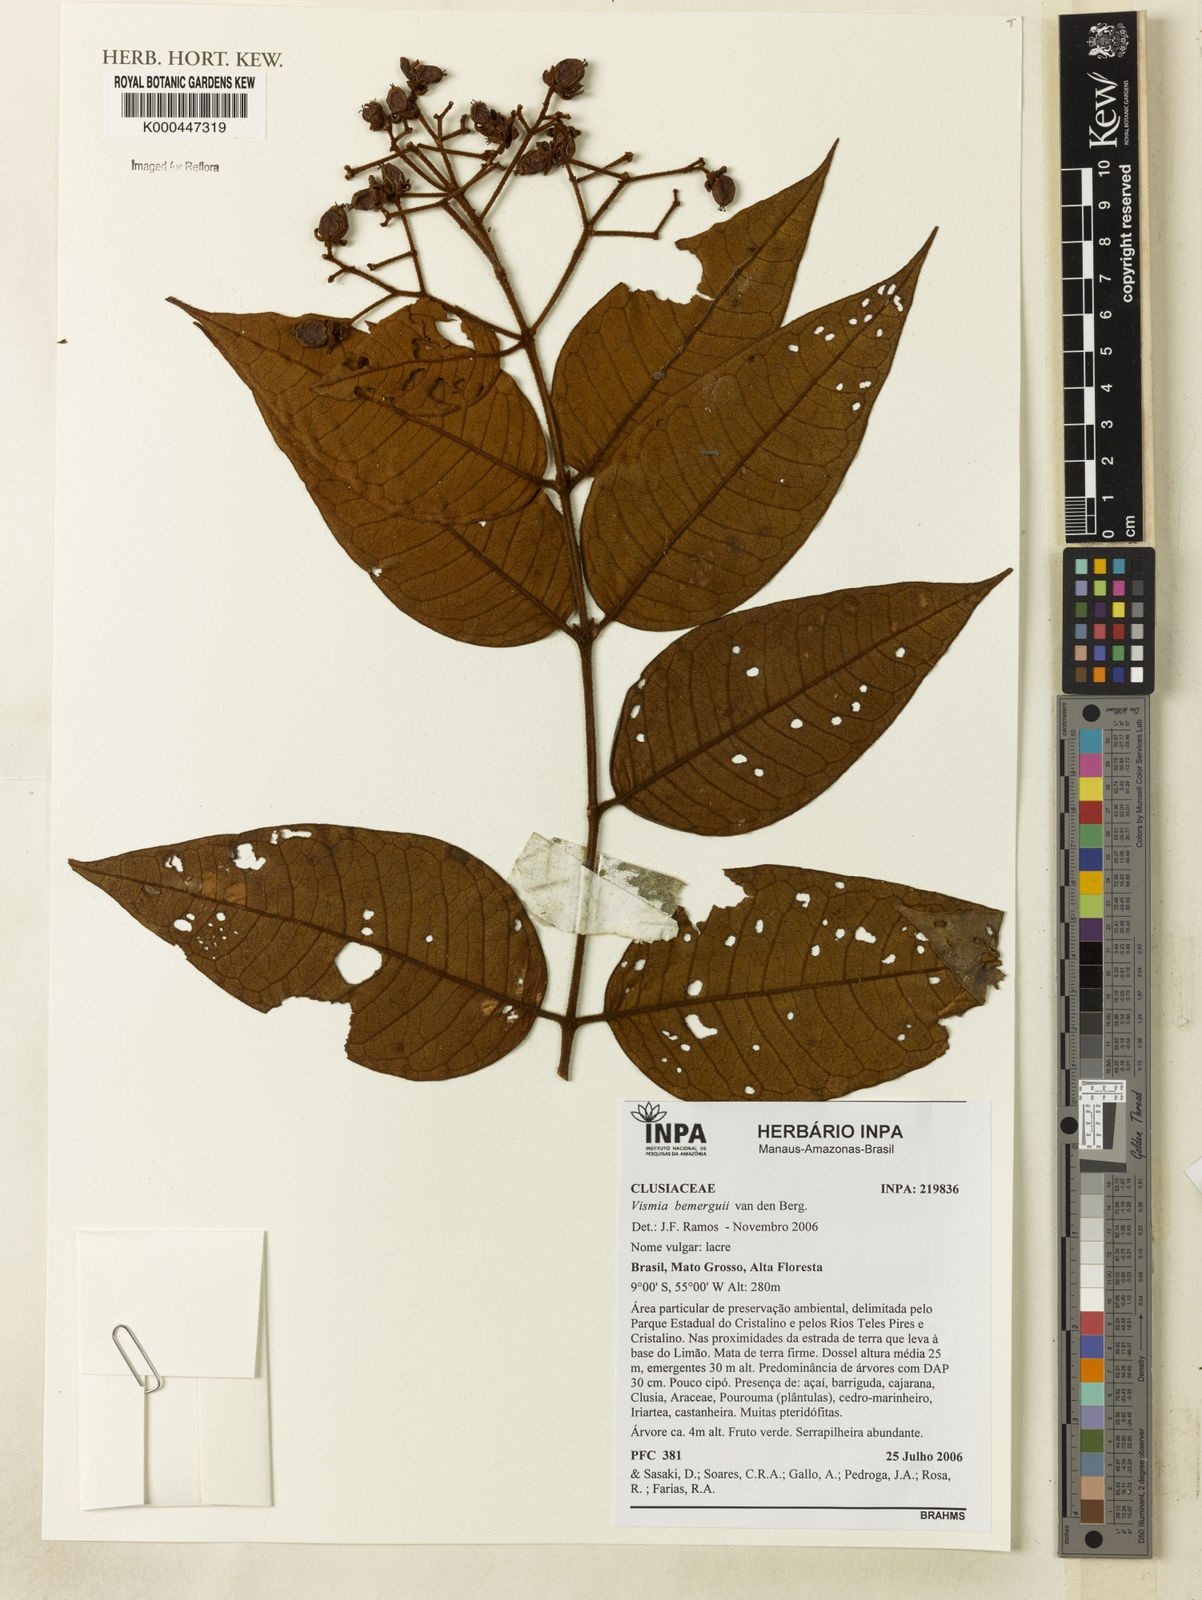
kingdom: Plantae
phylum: Tracheophyta
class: Magnoliopsida
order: Malpighiales
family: Hypericaceae
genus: Vismia
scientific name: Vismia bemerguii
